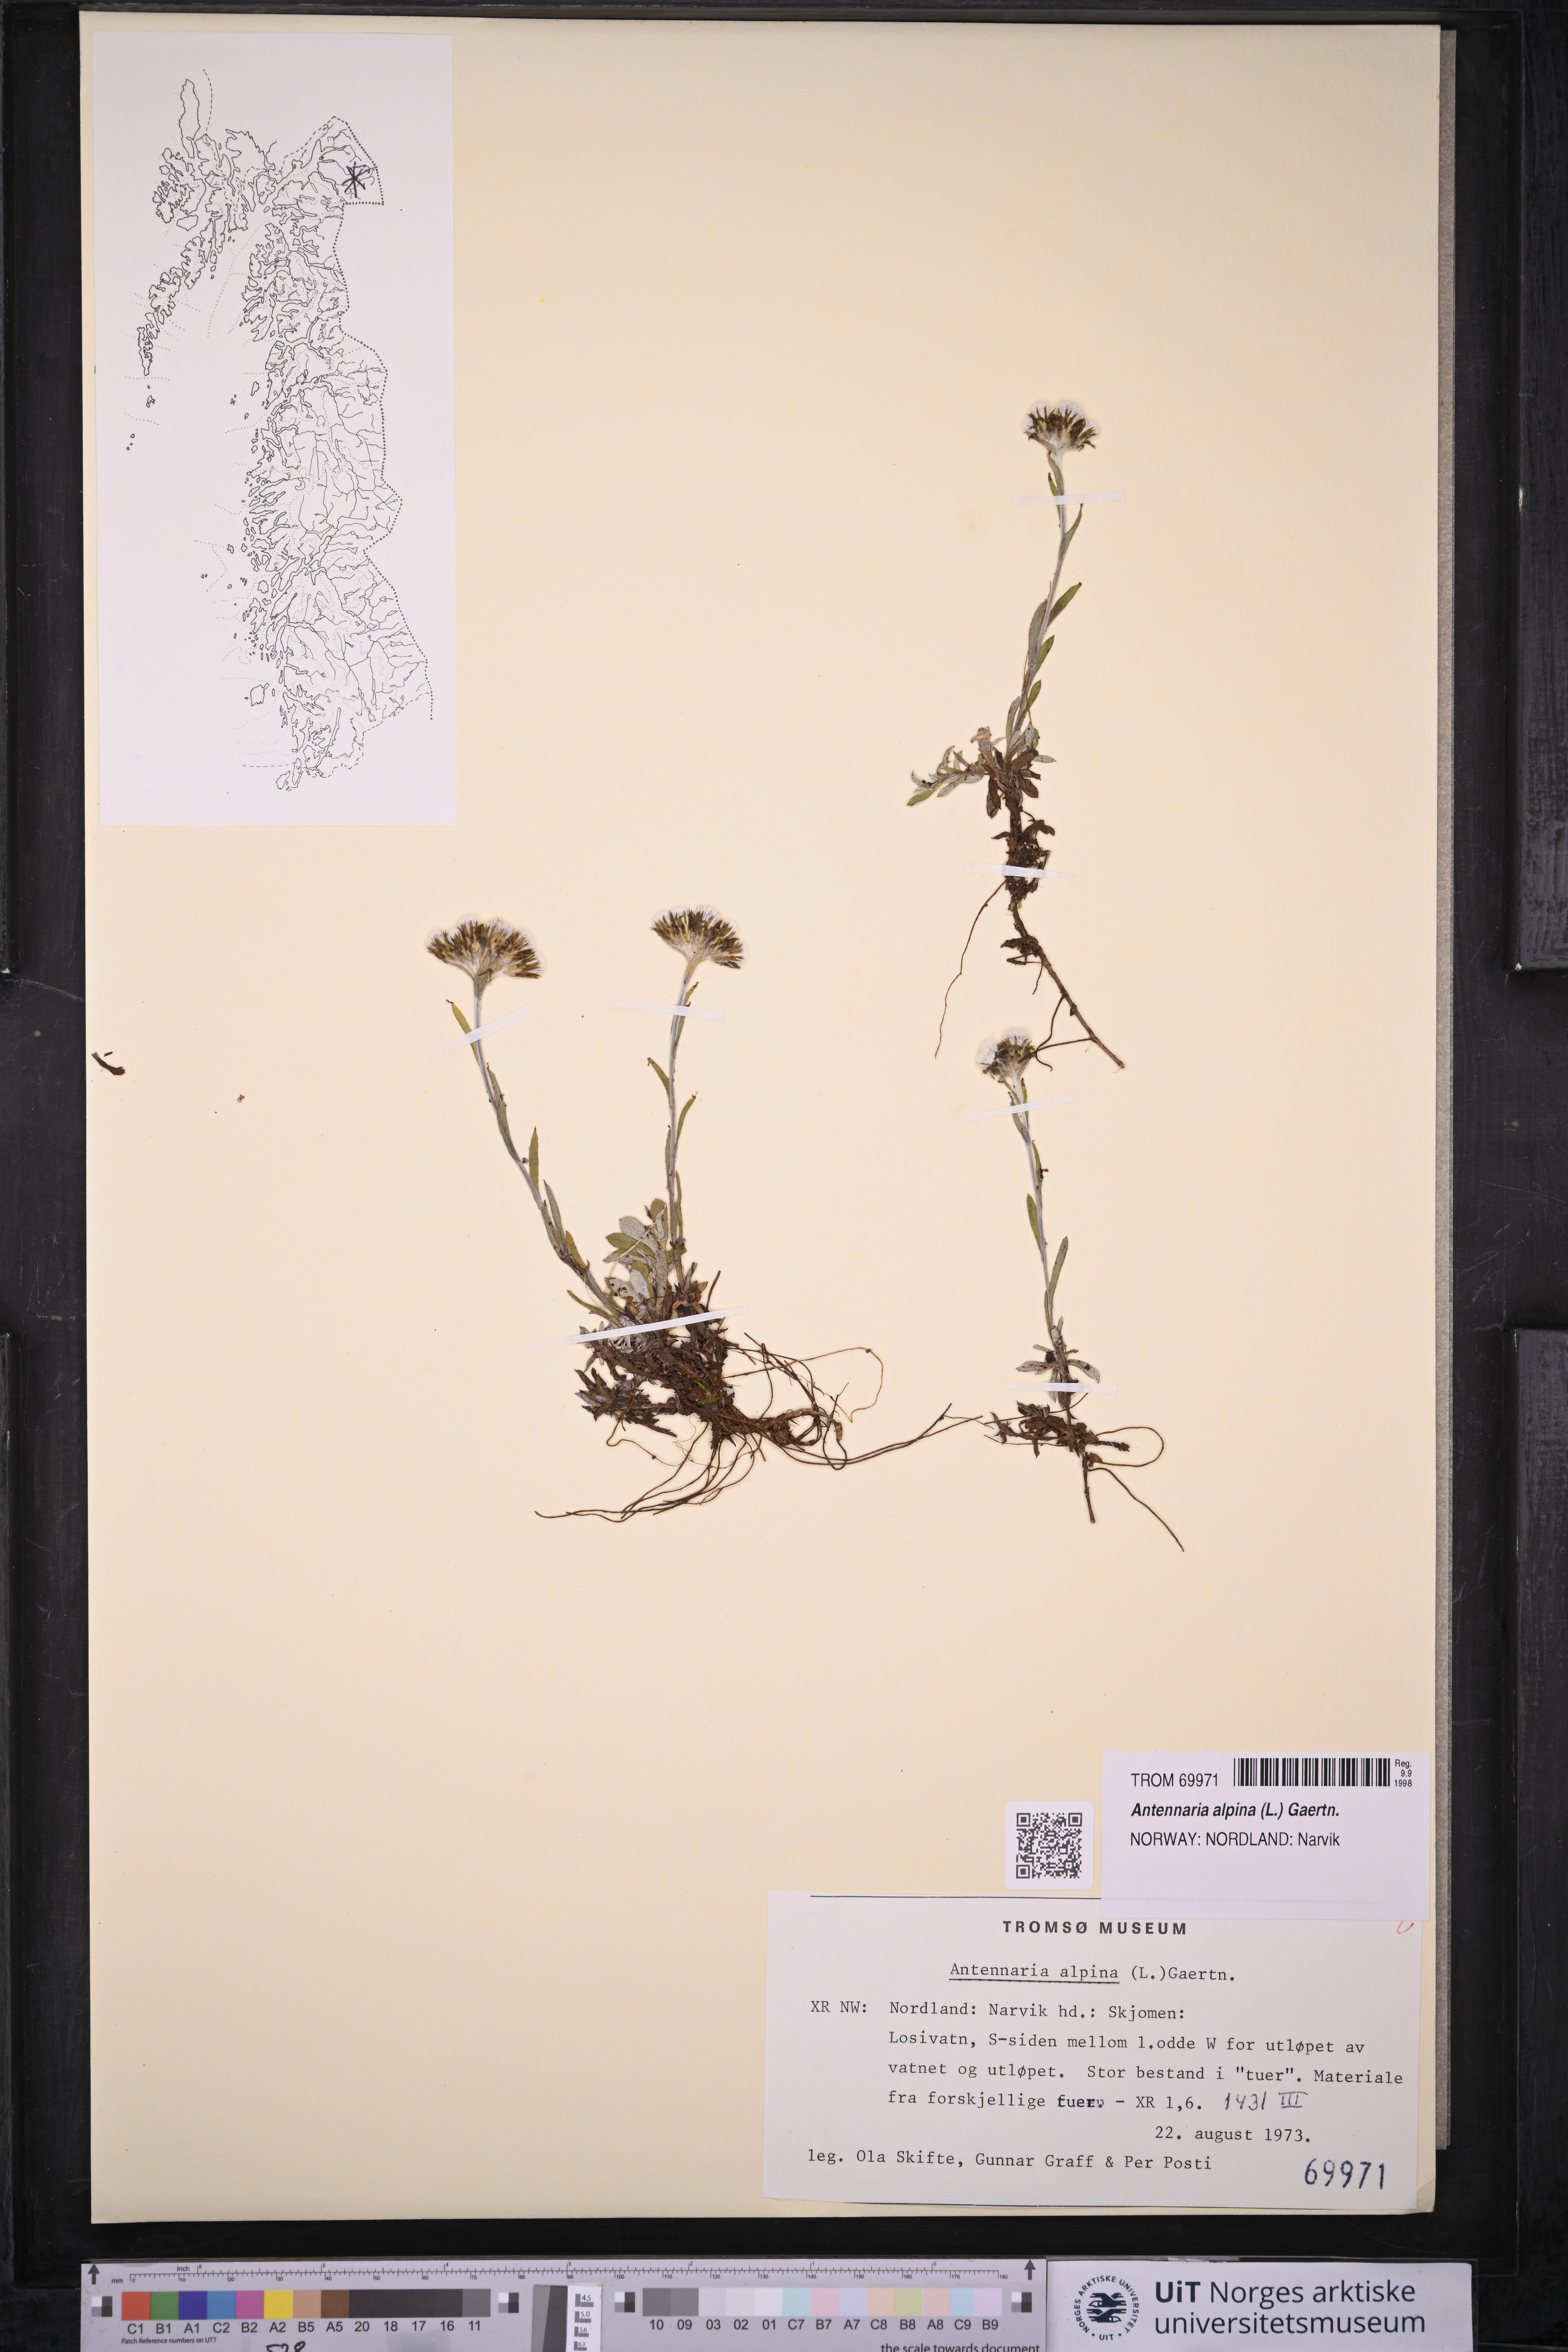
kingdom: Plantae
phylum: Tracheophyta
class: Magnoliopsida
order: Asterales
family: Asteraceae
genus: Antennaria
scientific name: Antennaria alpina
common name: Alpine pussytoes
